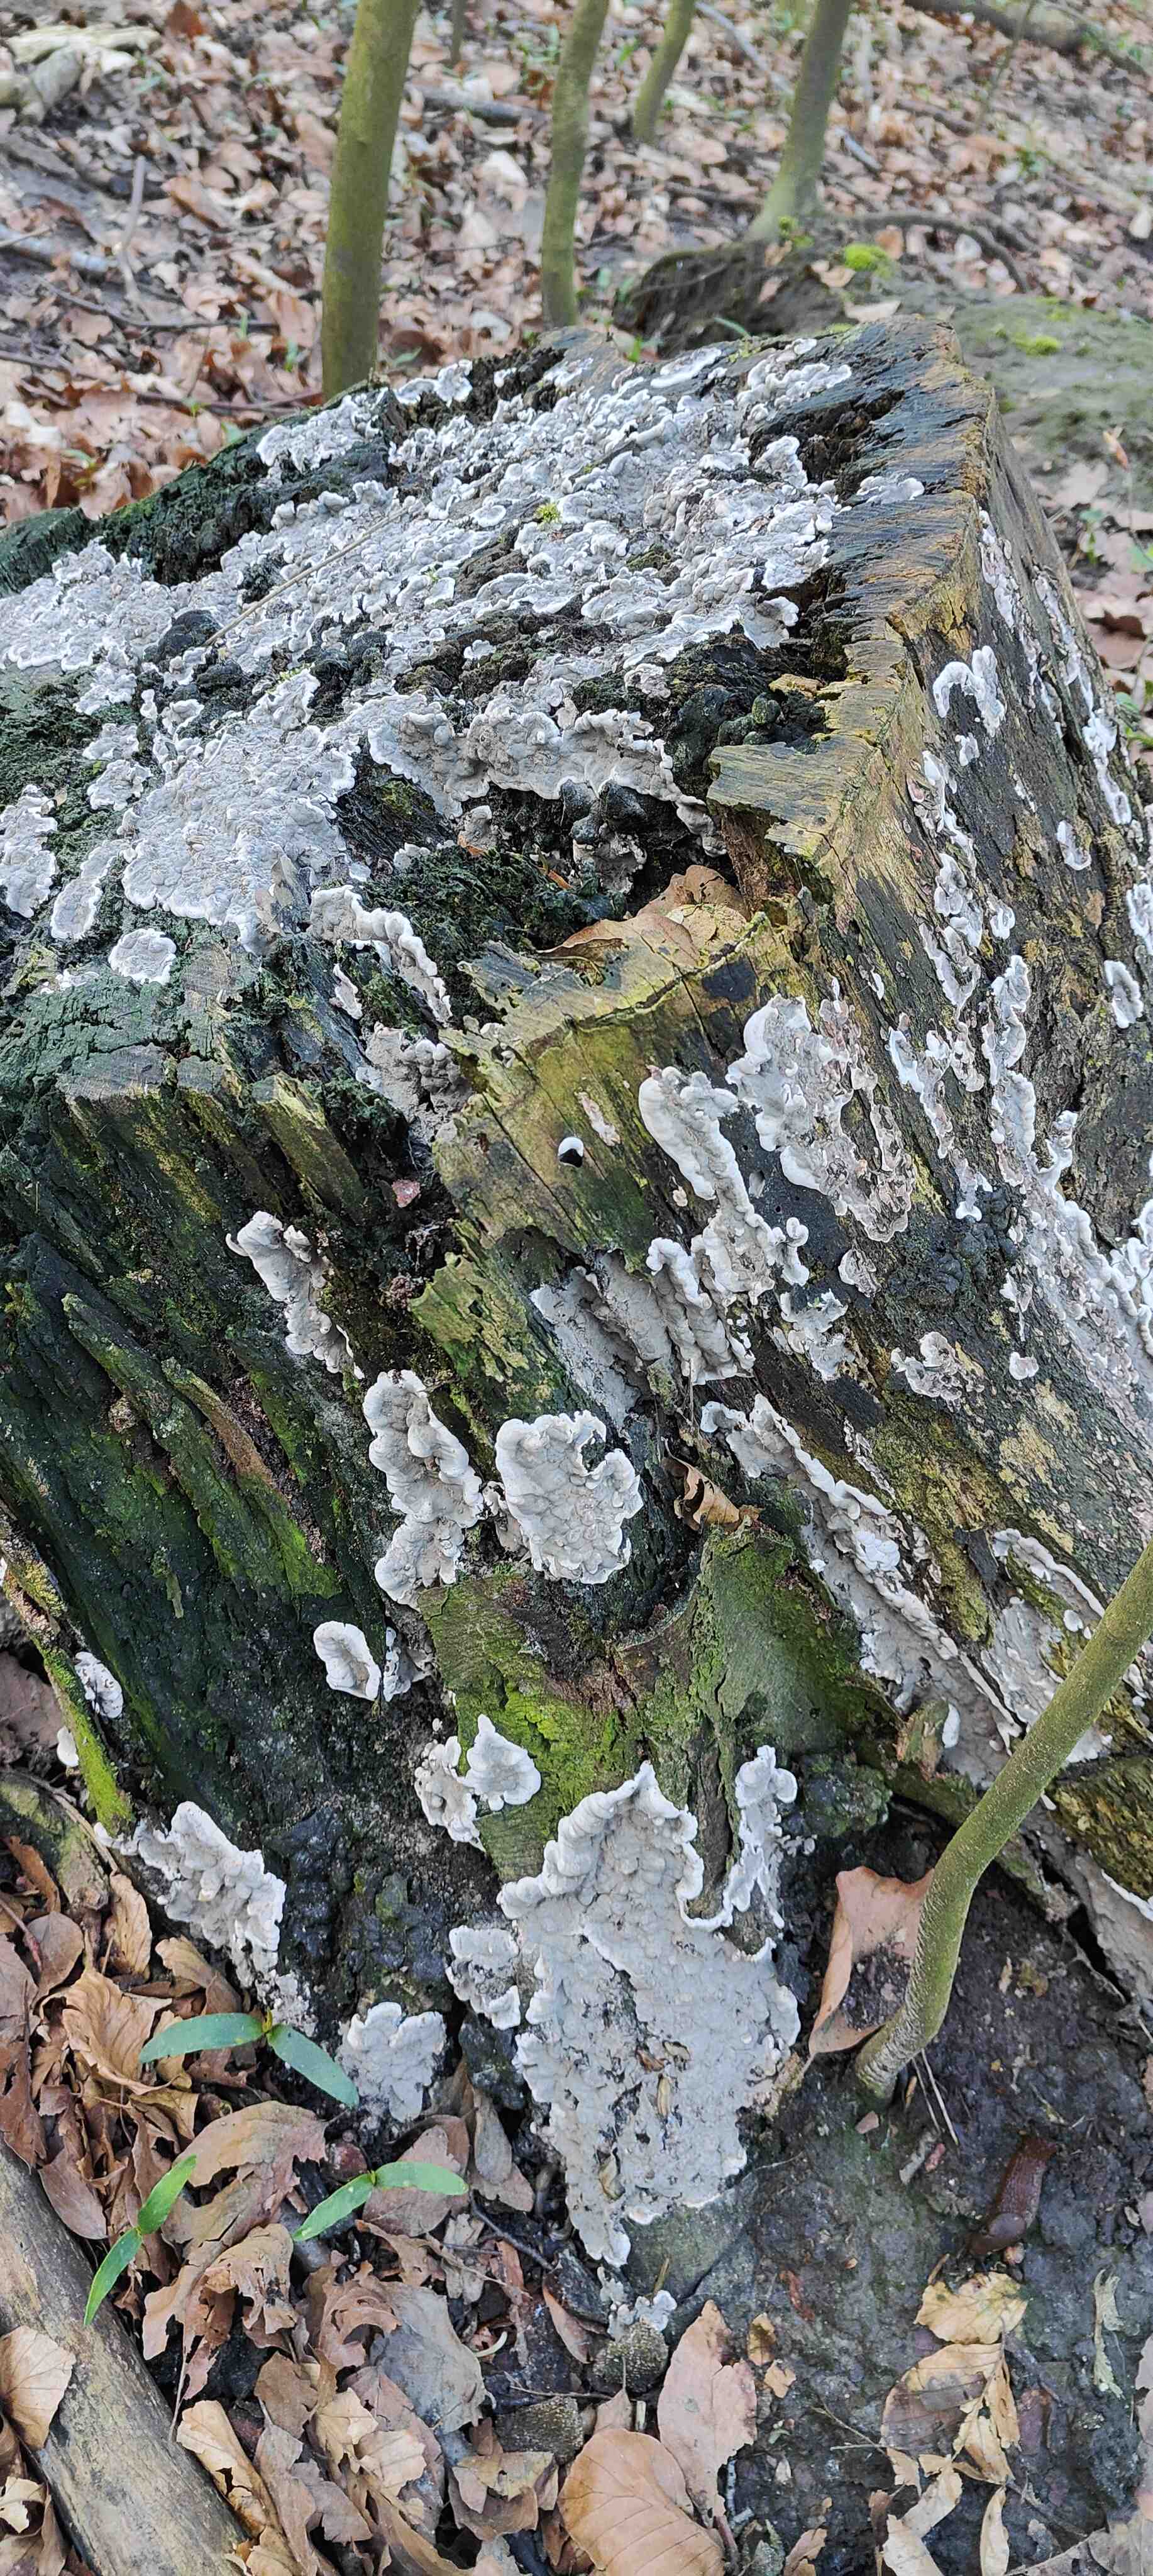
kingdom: Fungi
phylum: Ascomycota
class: Sordariomycetes
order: Xylariales
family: Xylariaceae
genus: Kretzschmaria
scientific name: Kretzschmaria deusta
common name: stor kulsvamp
